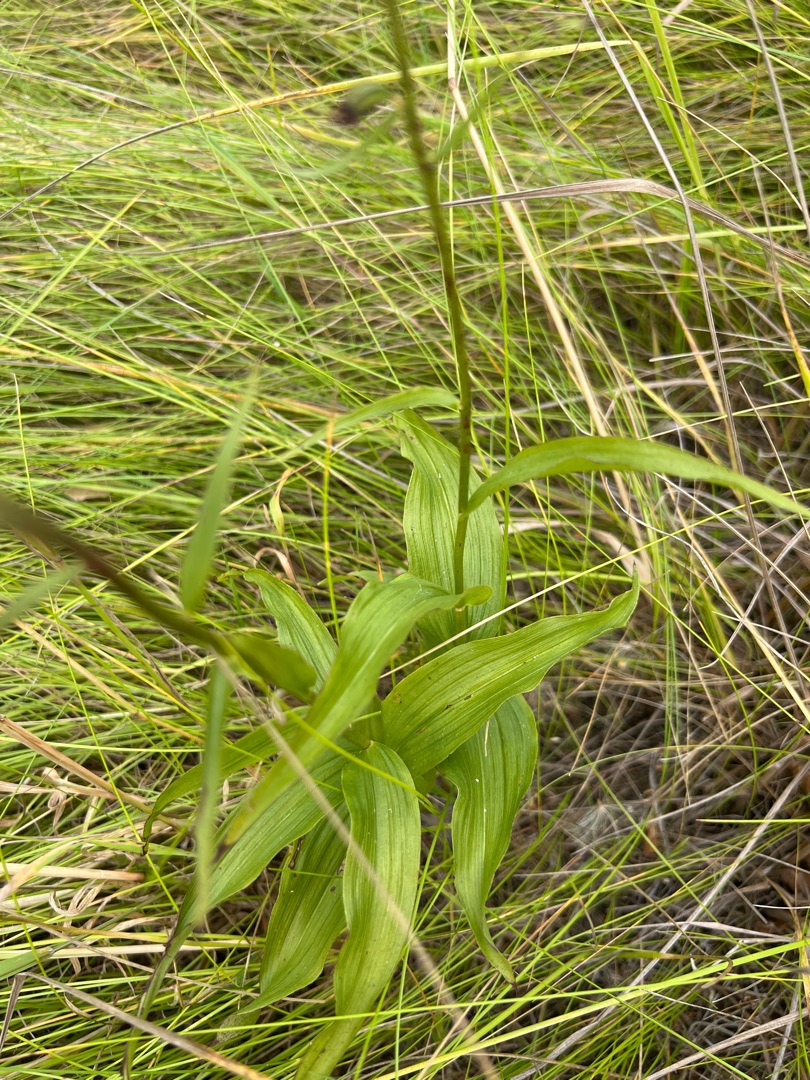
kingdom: Plantae
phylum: Tracheophyta
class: Liliopsida
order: Asparagales
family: Orchidaceae
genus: Epipactis
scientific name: Epipactis helleborine
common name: Skov-hullæbe
